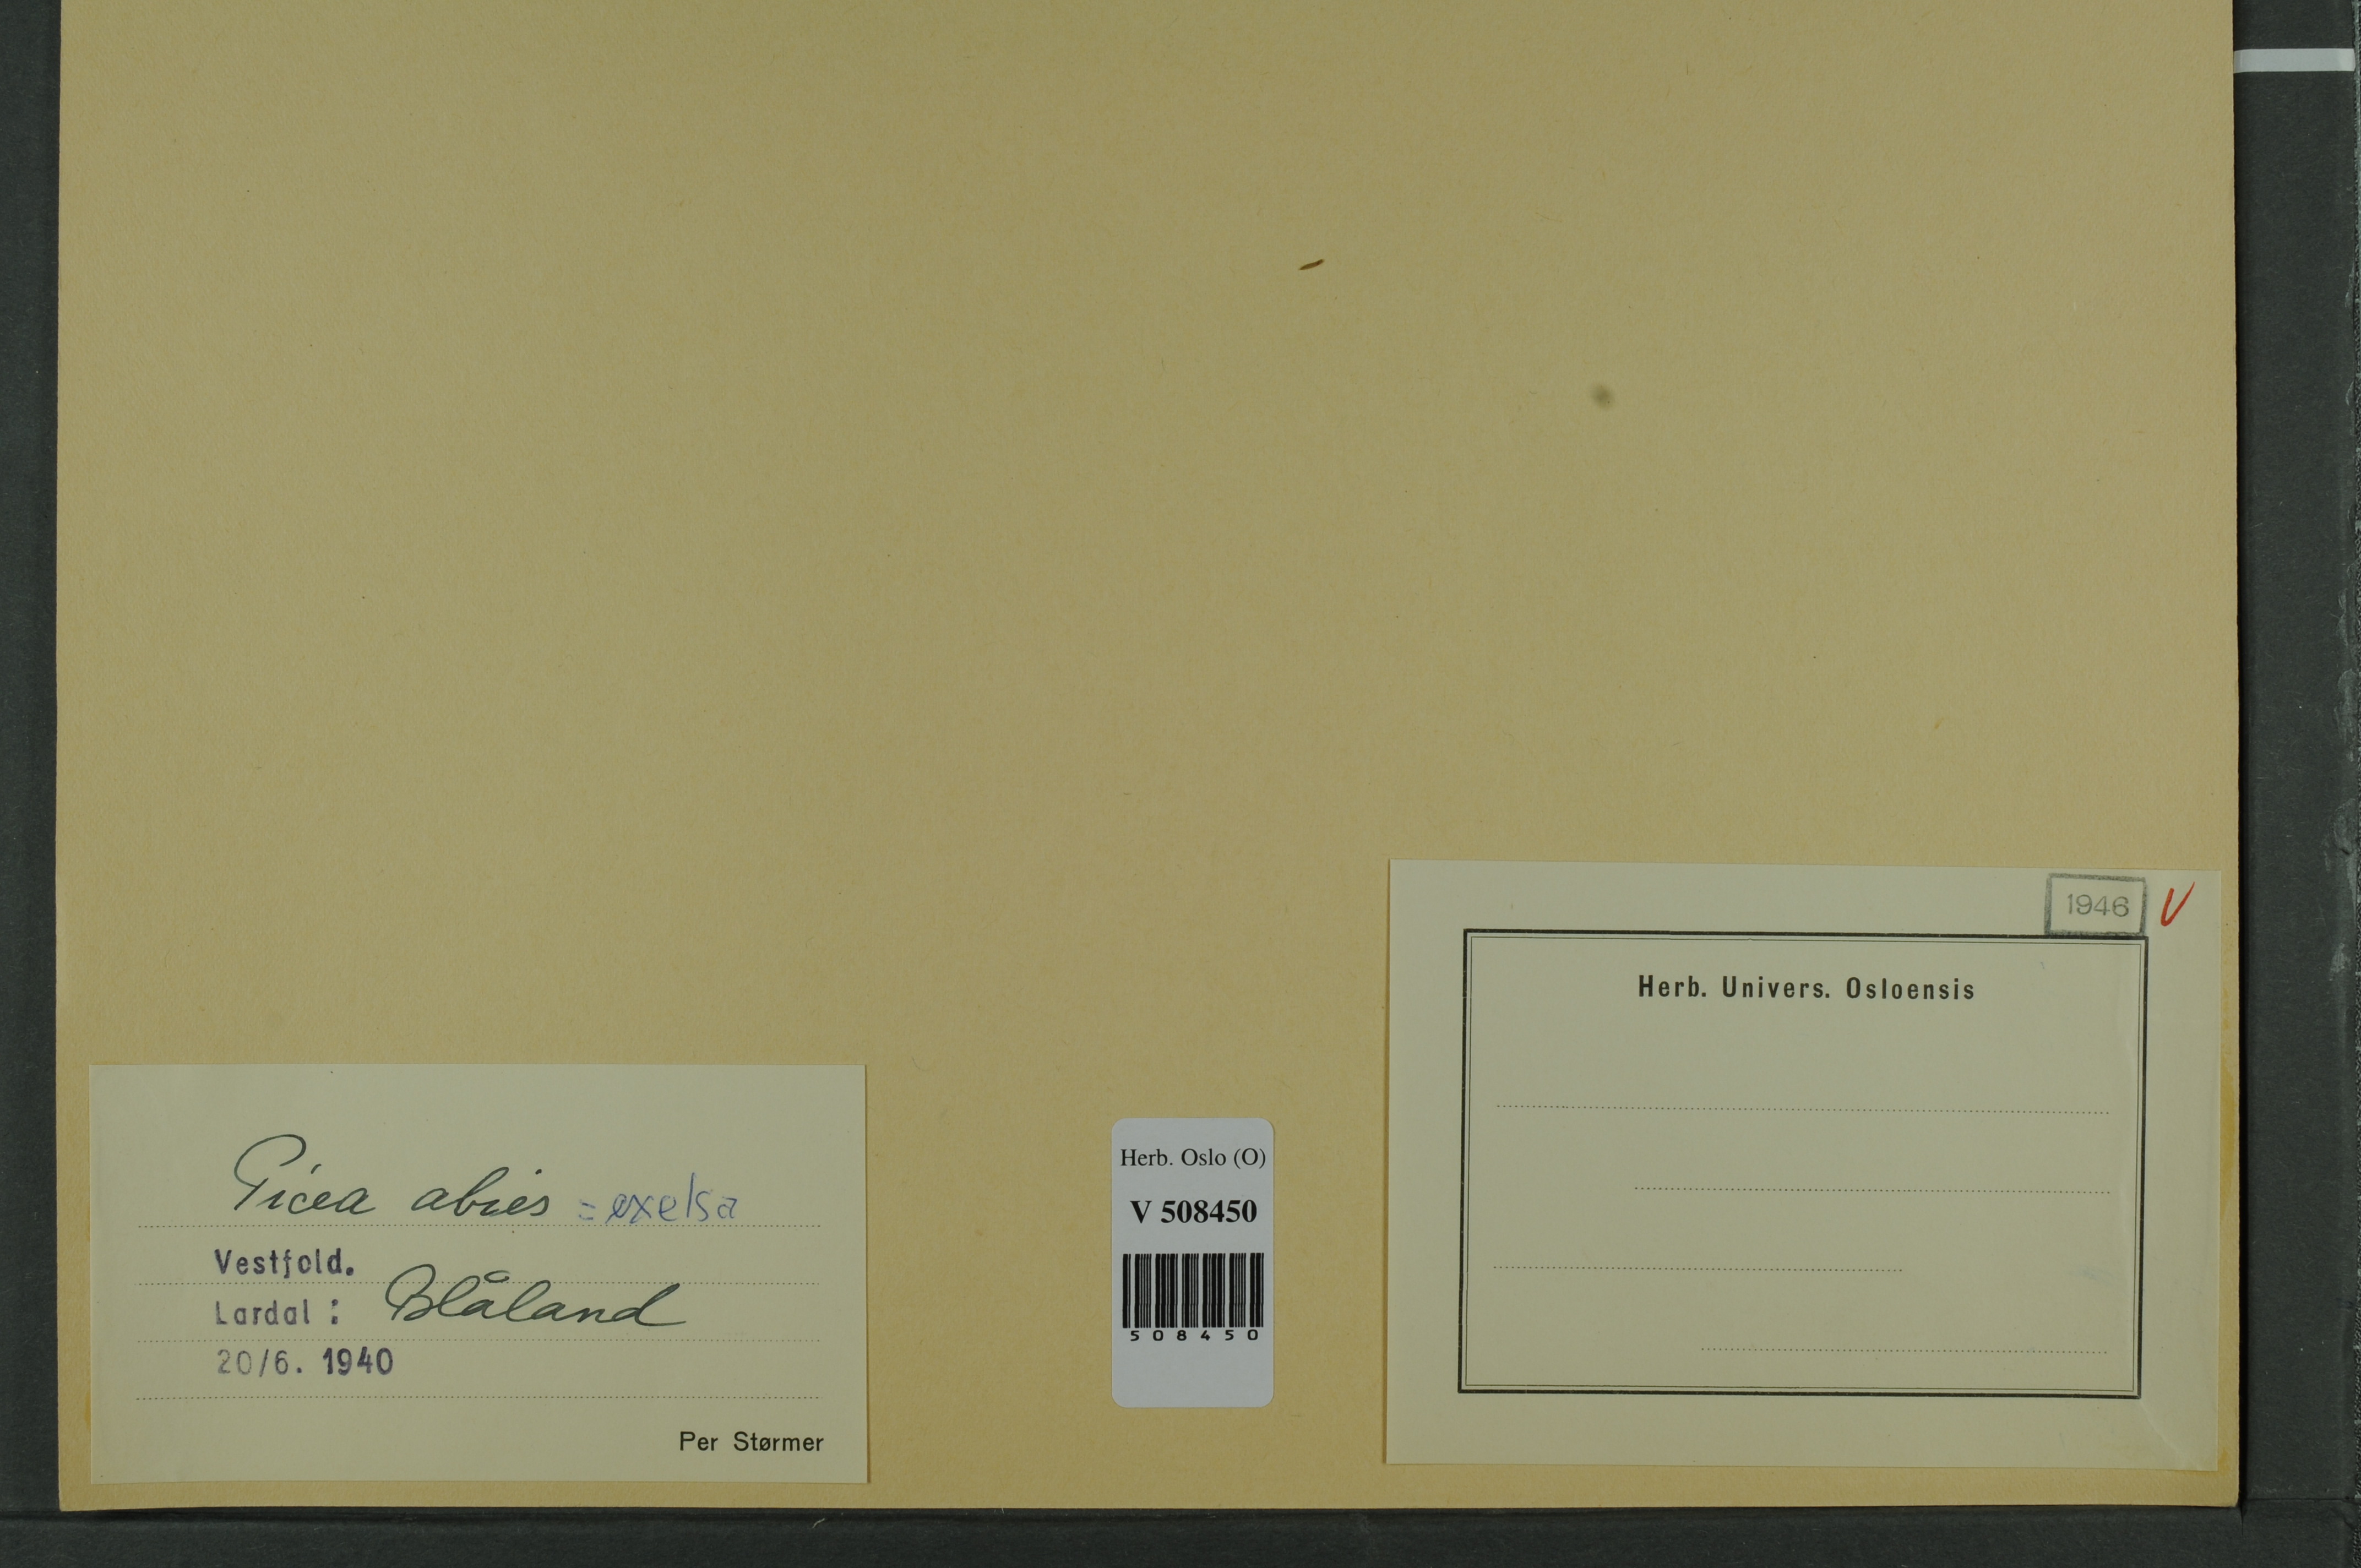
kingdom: Plantae
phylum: Tracheophyta
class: Pinopsida
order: Pinales
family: Pinaceae
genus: Picea
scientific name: Picea abies
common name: Norway spruce
